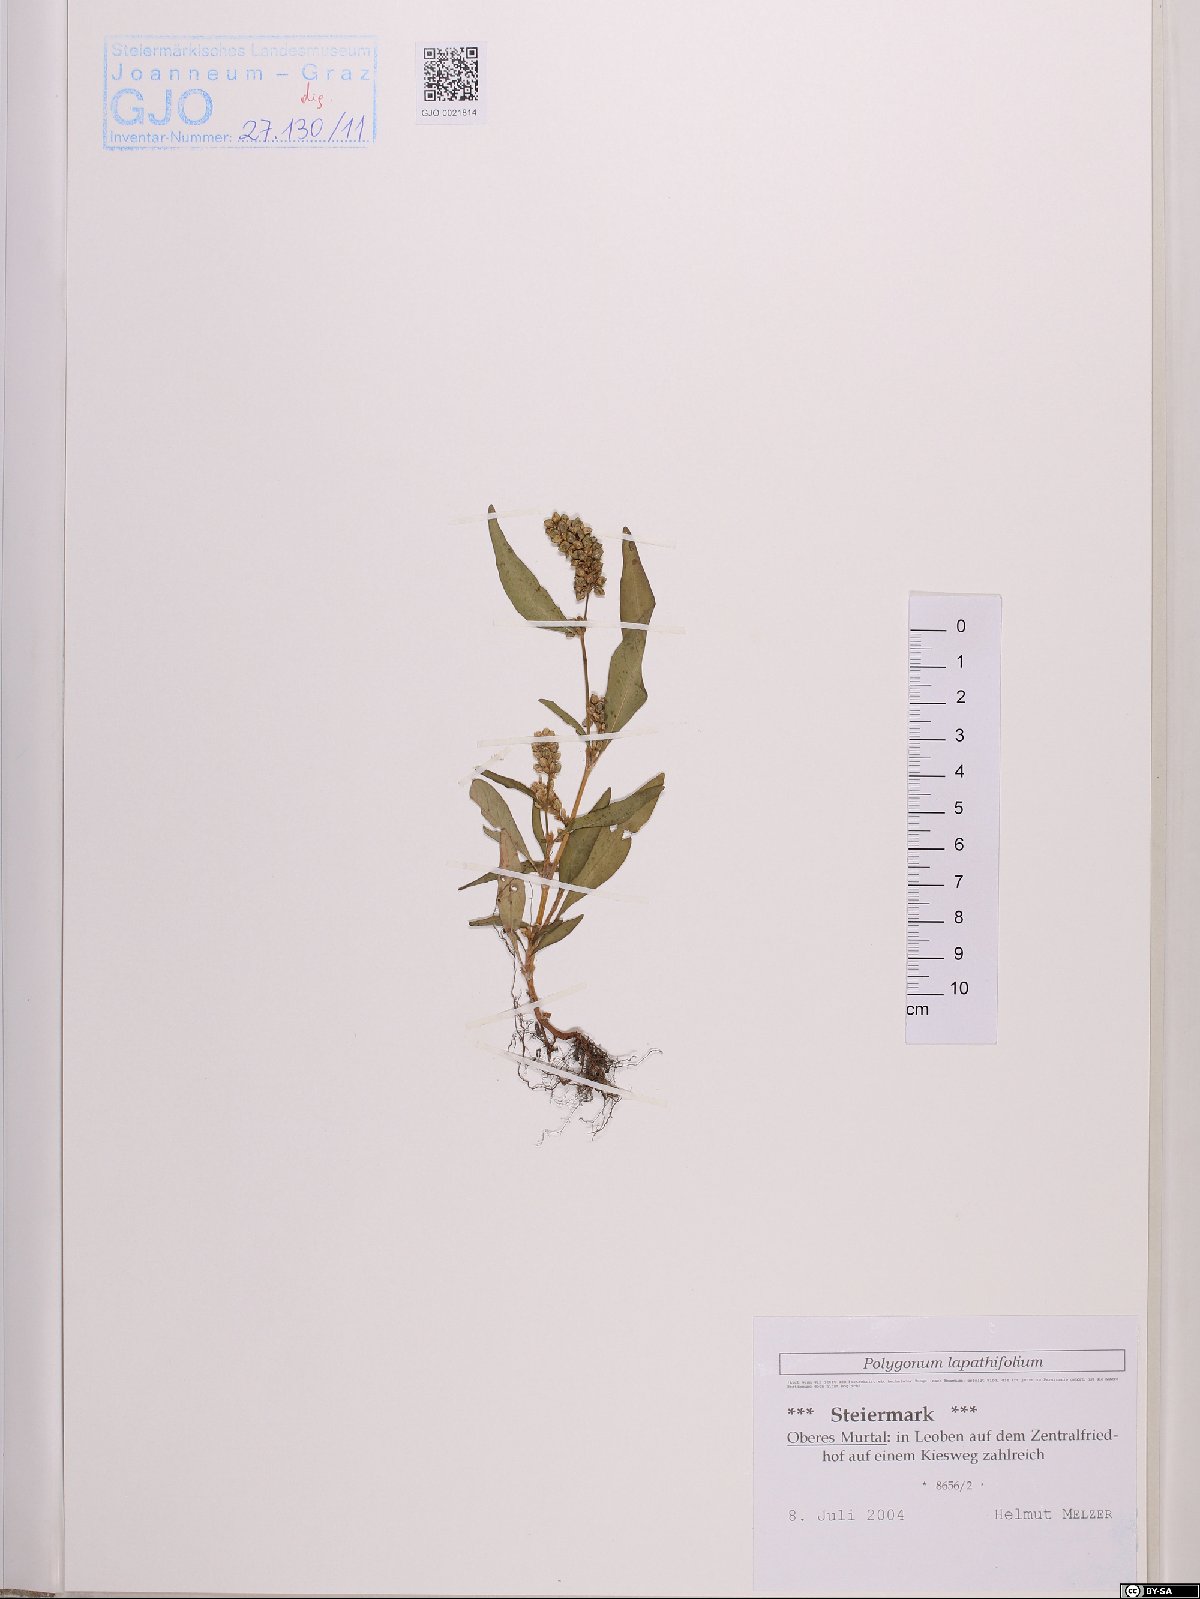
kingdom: Plantae
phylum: Tracheophyta
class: Magnoliopsida
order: Caryophyllales
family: Polygonaceae
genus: Persicaria
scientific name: Persicaria lapathifolia
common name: Curlytop knotweed
